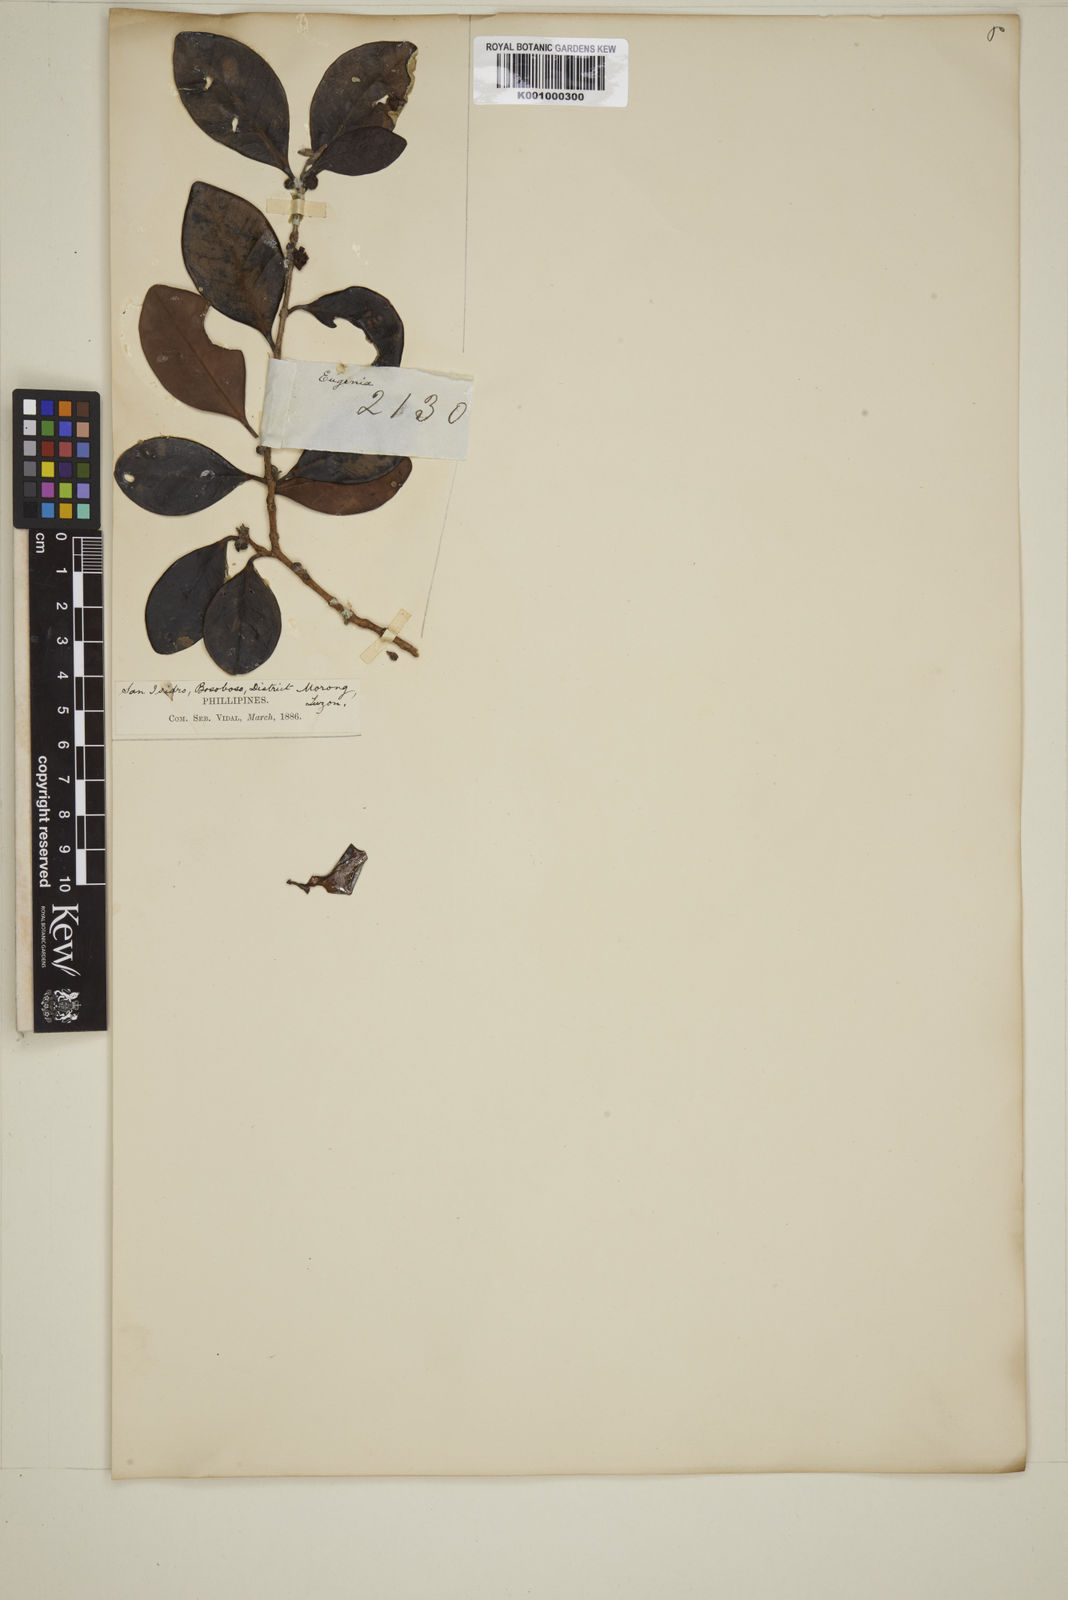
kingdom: Plantae
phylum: Tracheophyta
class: Magnoliopsida
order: Myrtales
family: Myrtaceae
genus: Eugenia
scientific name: Eugenia sargentii
